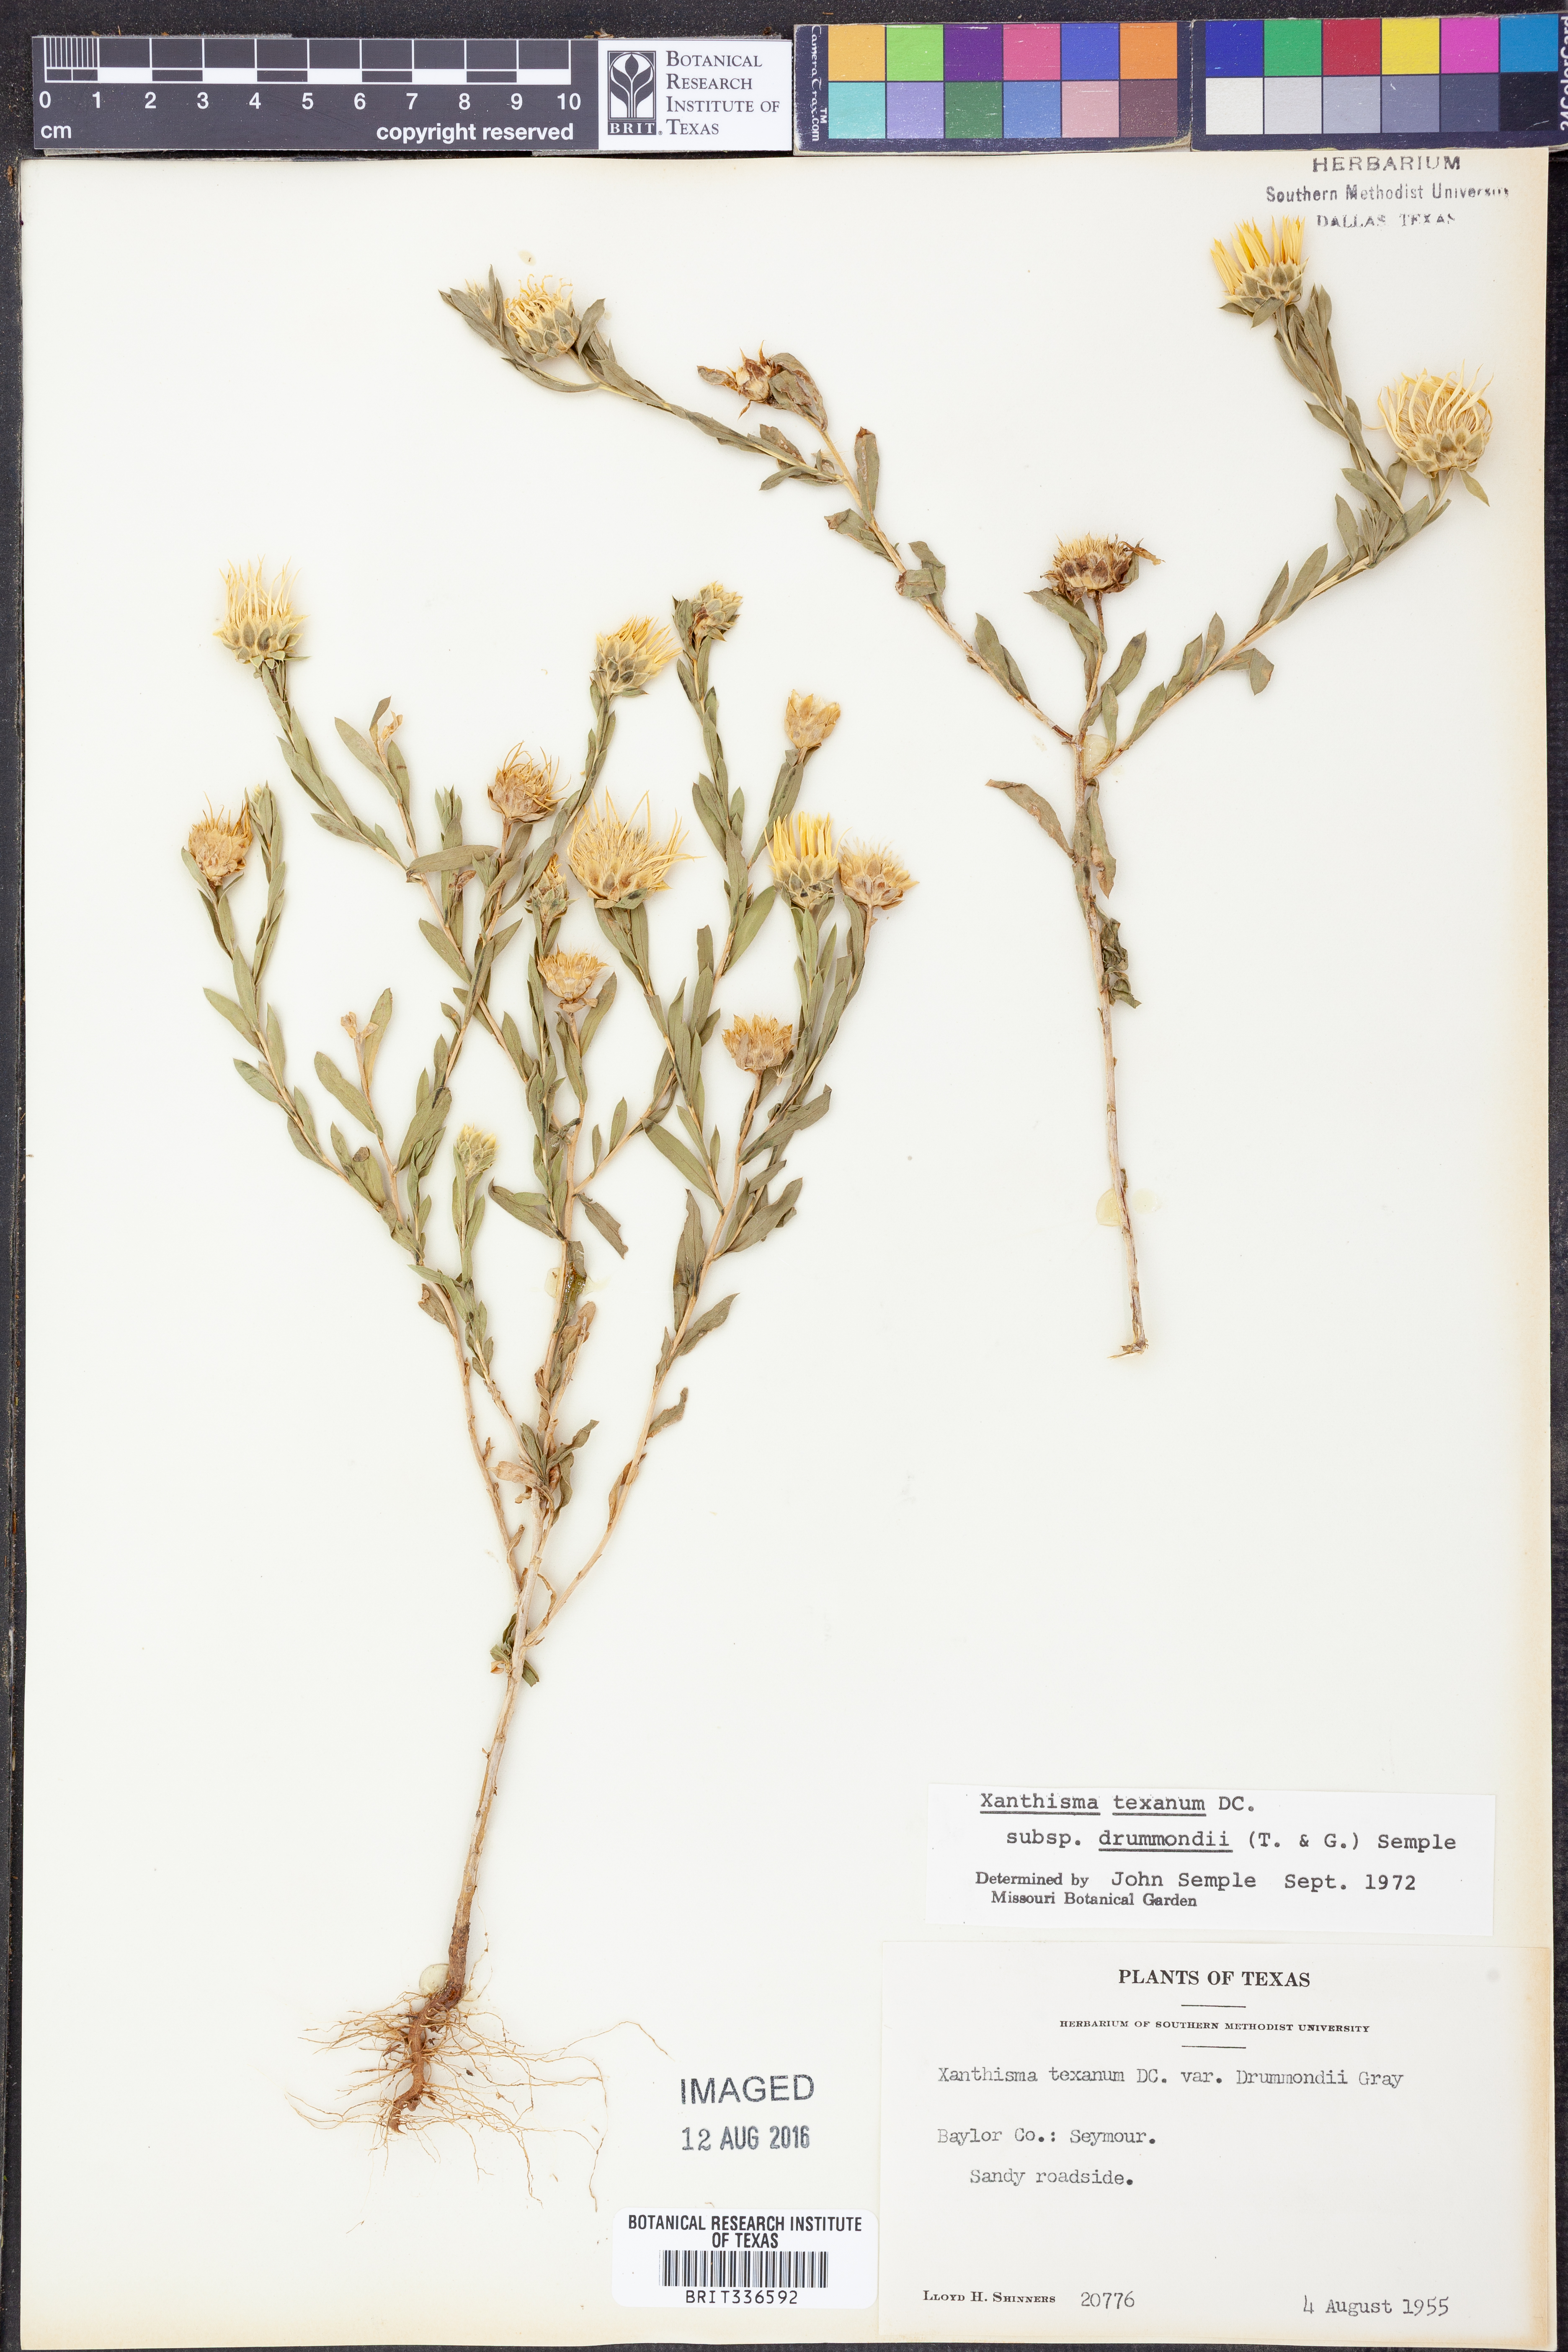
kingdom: Plantae
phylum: Tracheophyta
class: Magnoliopsida
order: Asterales
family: Asteraceae
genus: Xanthisma
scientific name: Xanthisma texanum
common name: Texas sleepy daisy
